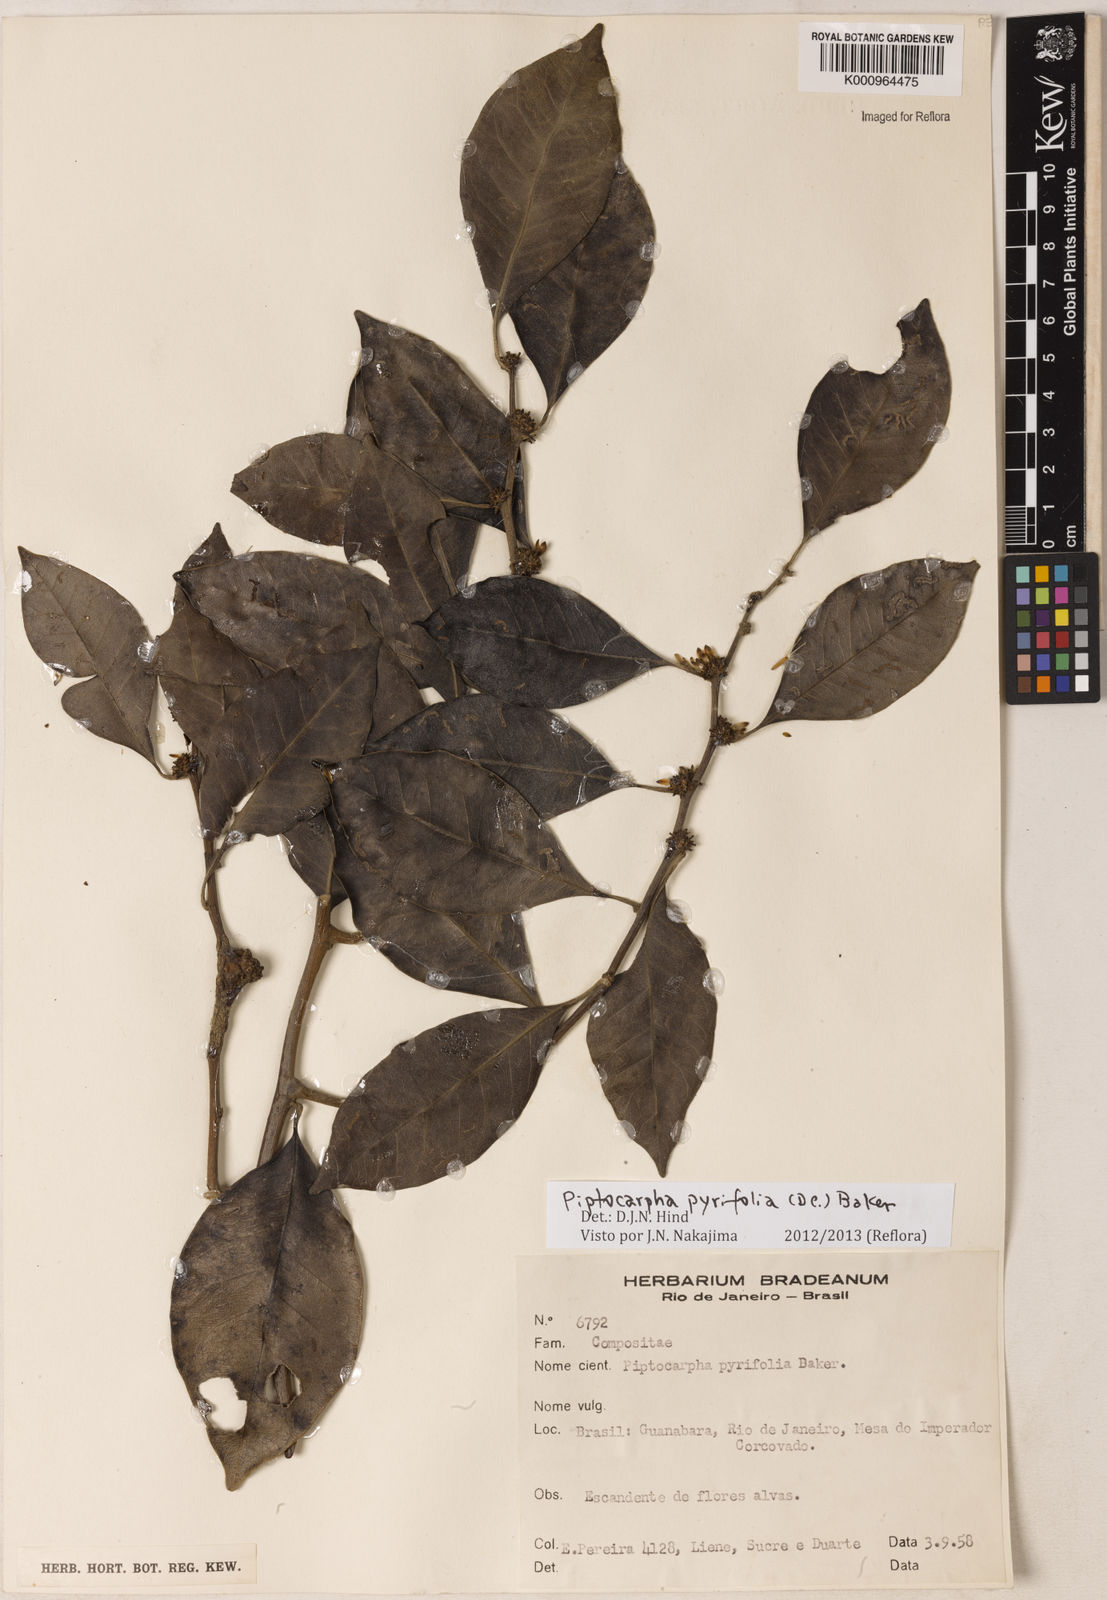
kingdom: Plantae
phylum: Tracheophyta
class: Magnoliopsida
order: Asterales
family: Asteraceae
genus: Piptocarpha
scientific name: Piptocarpha pyrifolia
